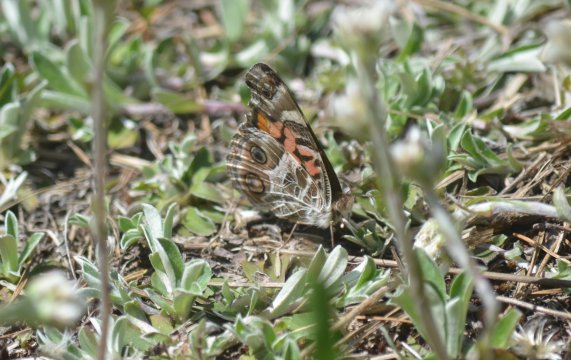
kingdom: Animalia
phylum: Arthropoda
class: Insecta
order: Lepidoptera
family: Nymphalidae
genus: Vanessa
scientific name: Vanessa virginiensis
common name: American Lady
